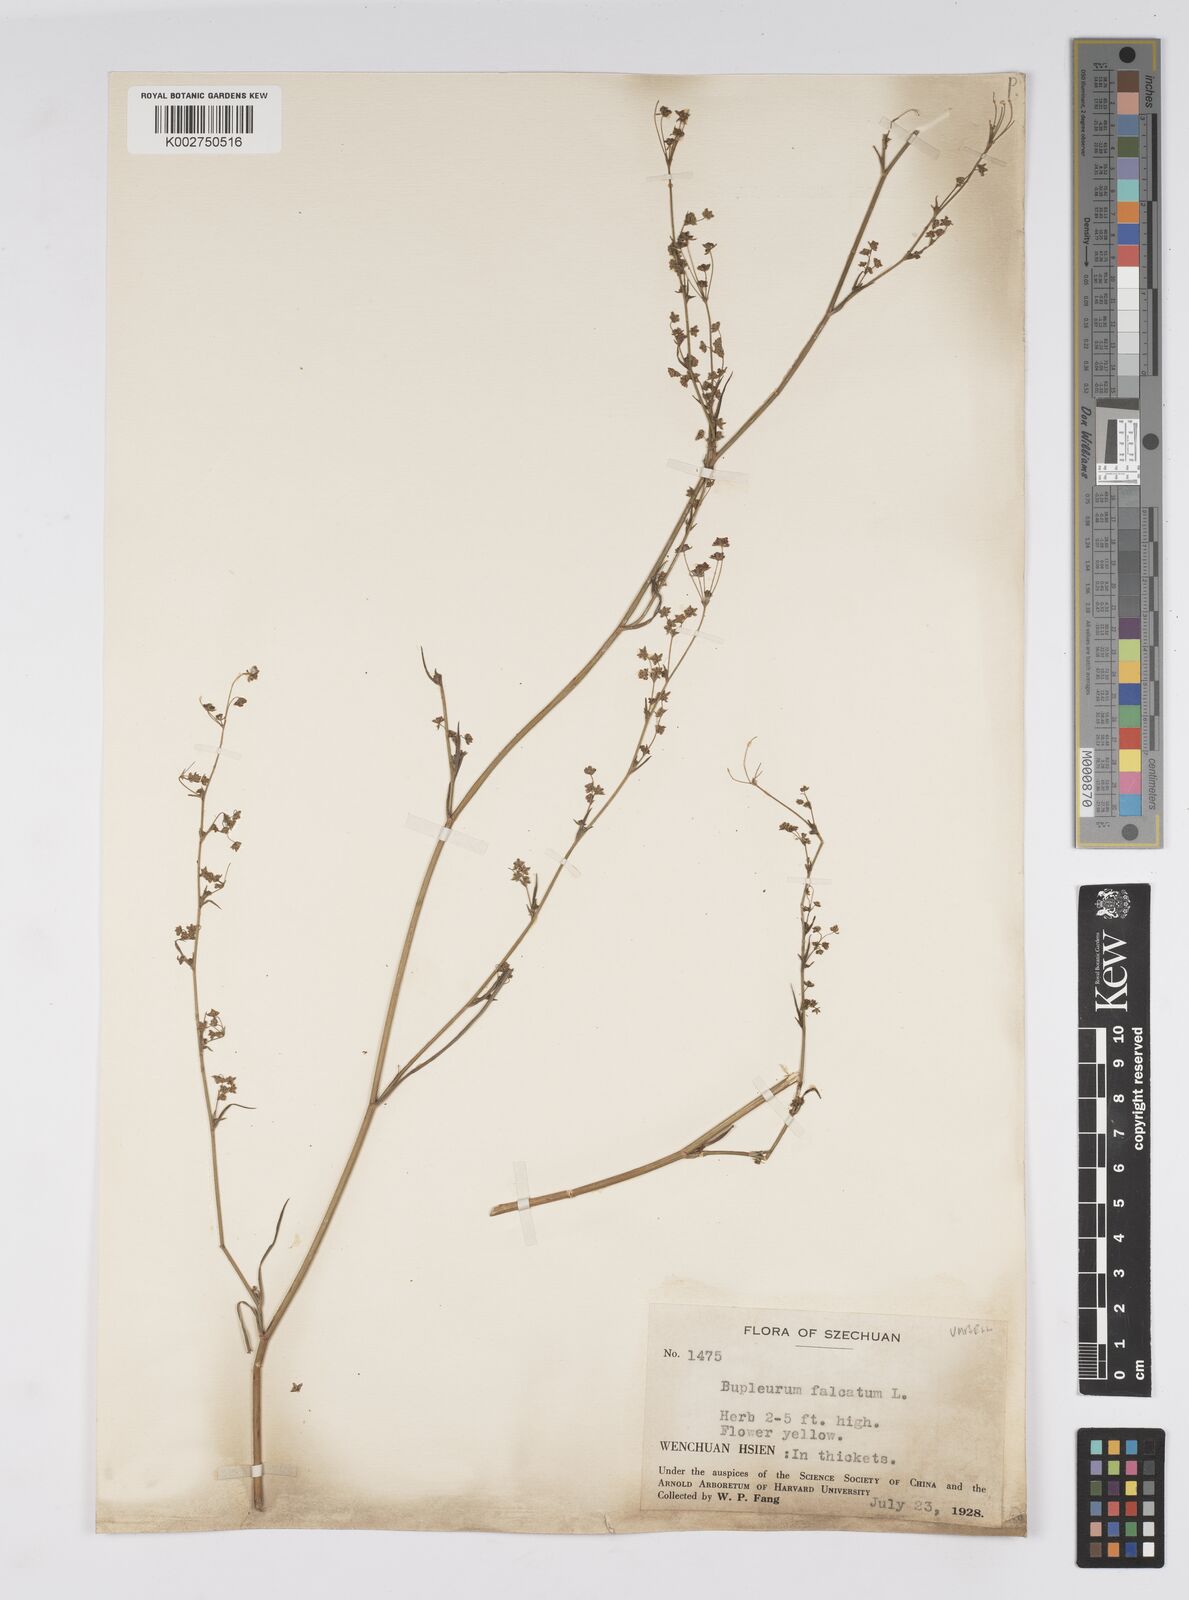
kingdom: Plantae
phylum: Tracheophyta
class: Magnoliopsida
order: Apiales
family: Apiaceae
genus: Bupleurum
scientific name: Bupleurum krylovianum
